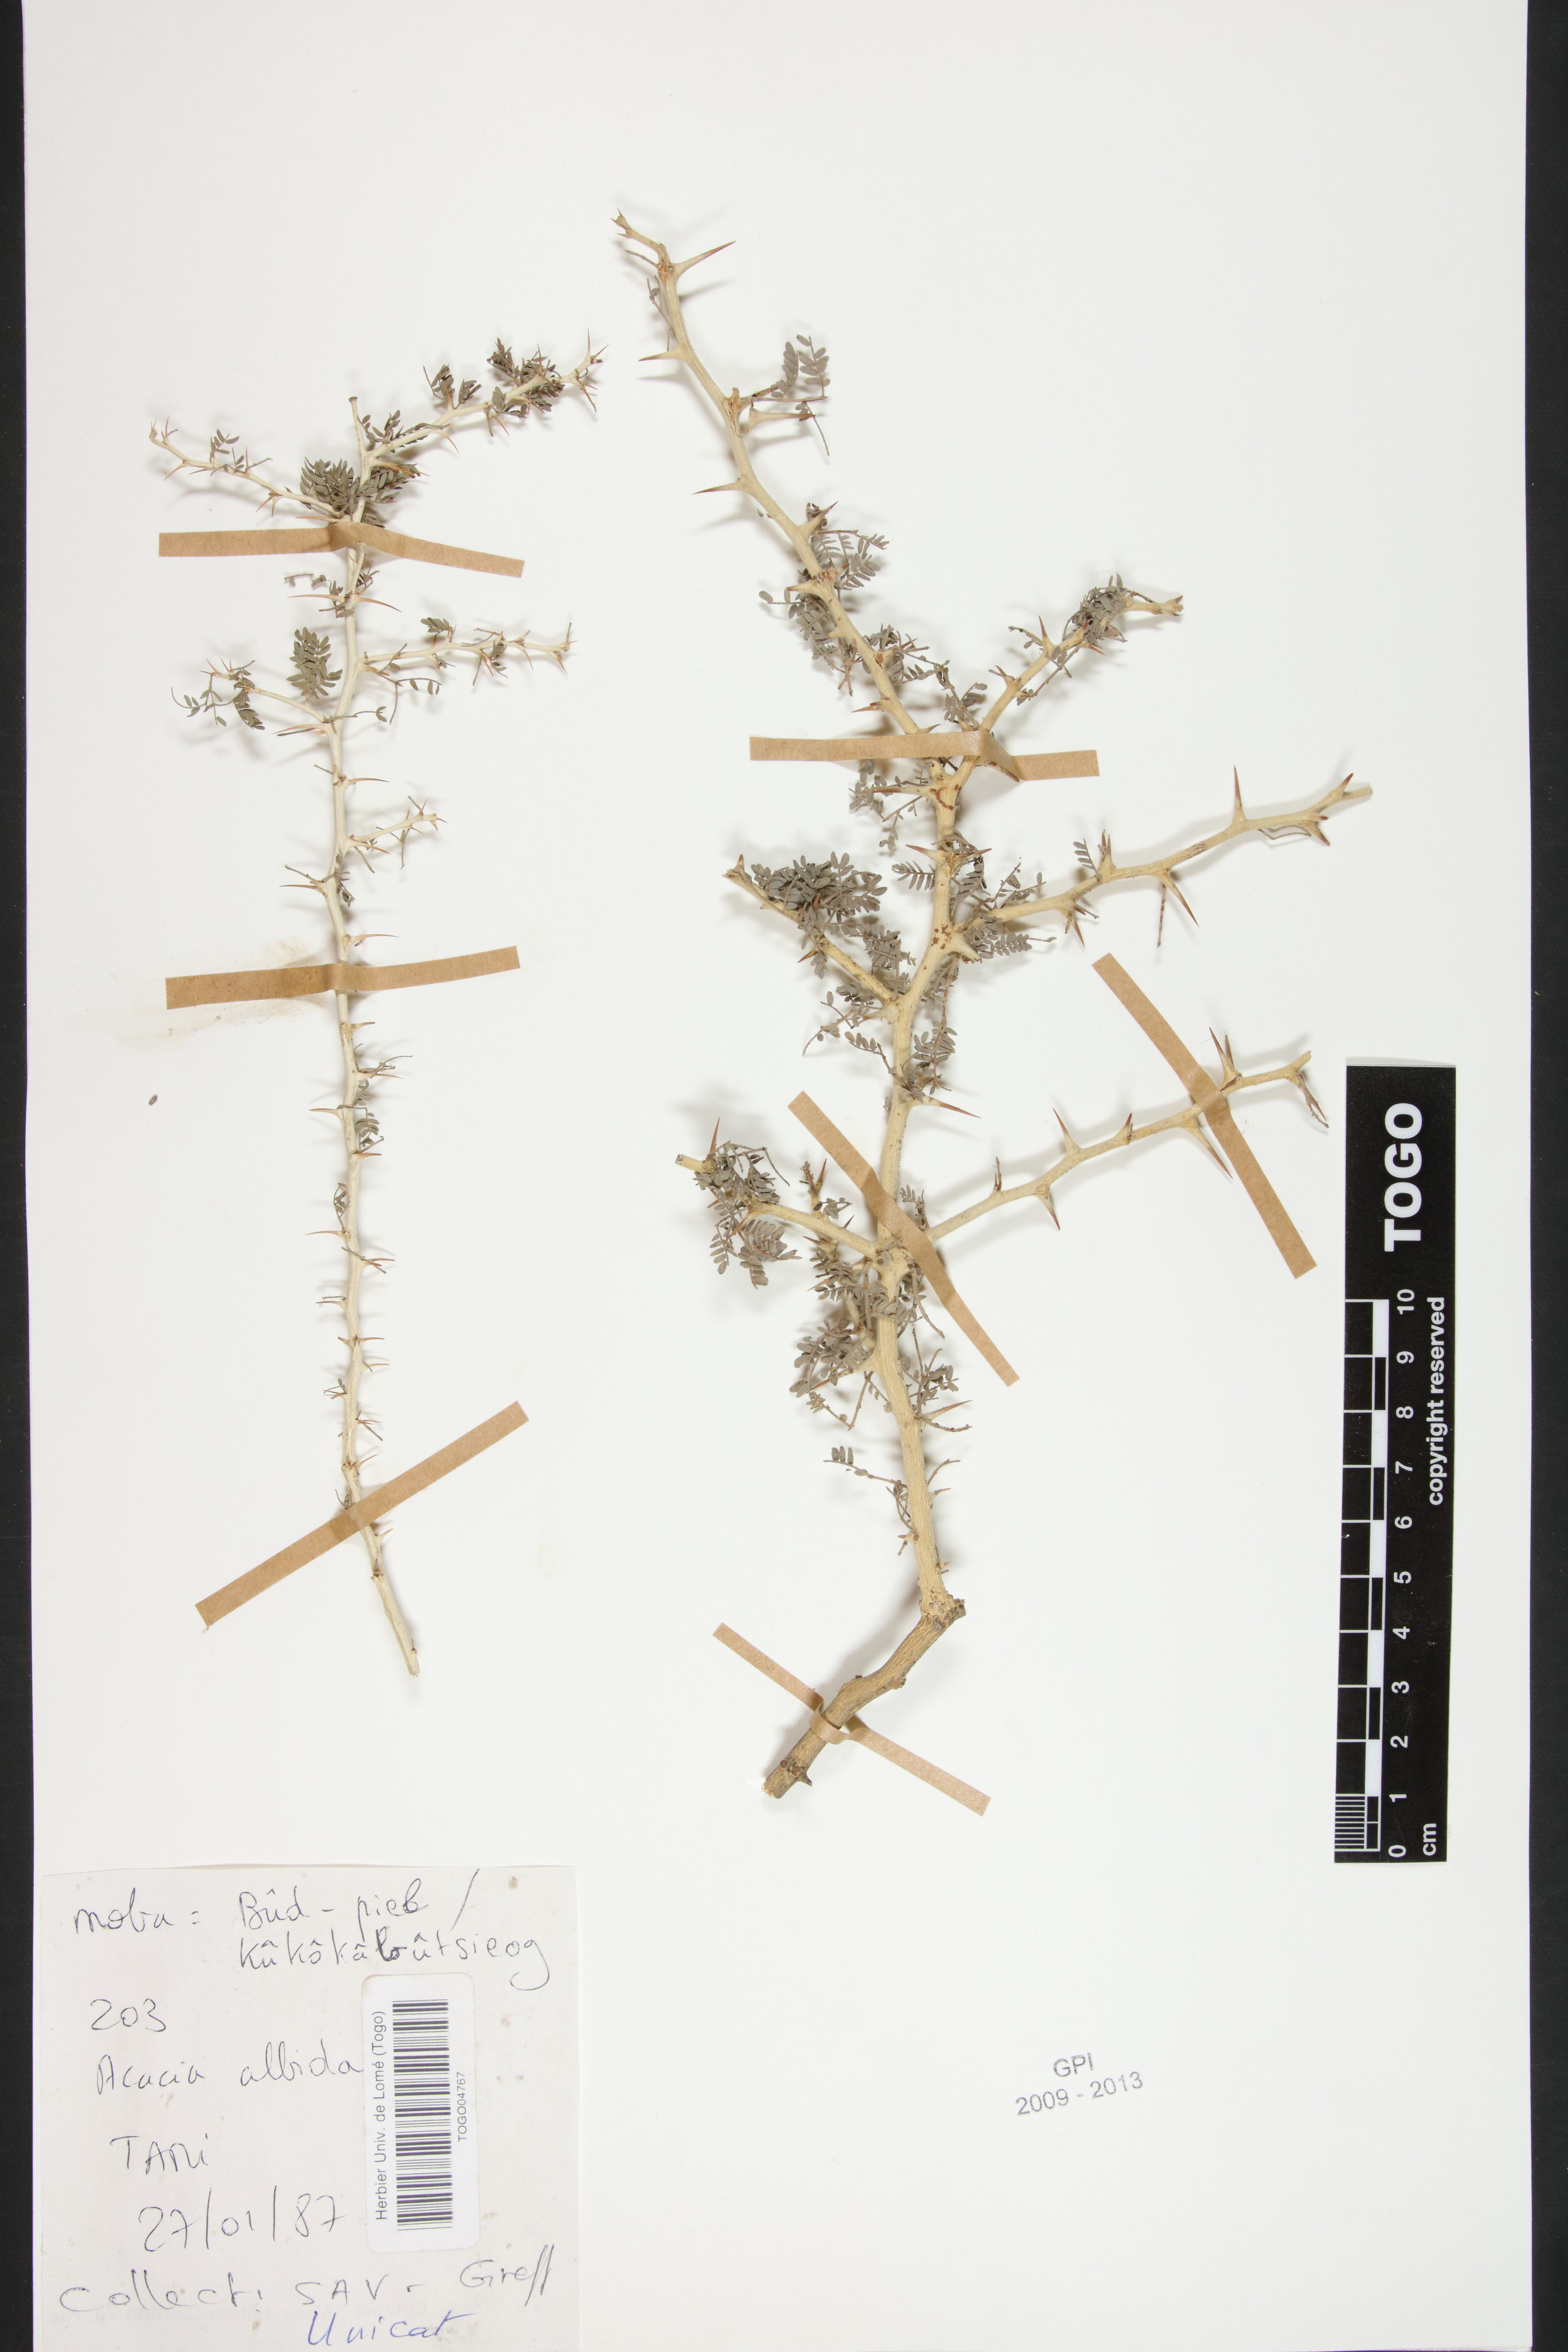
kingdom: Plantae
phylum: Tracheophyta
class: Magnoliopsida
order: Fabales
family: Fabaceae
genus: Faidherbia
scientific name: Faidherbia albida
